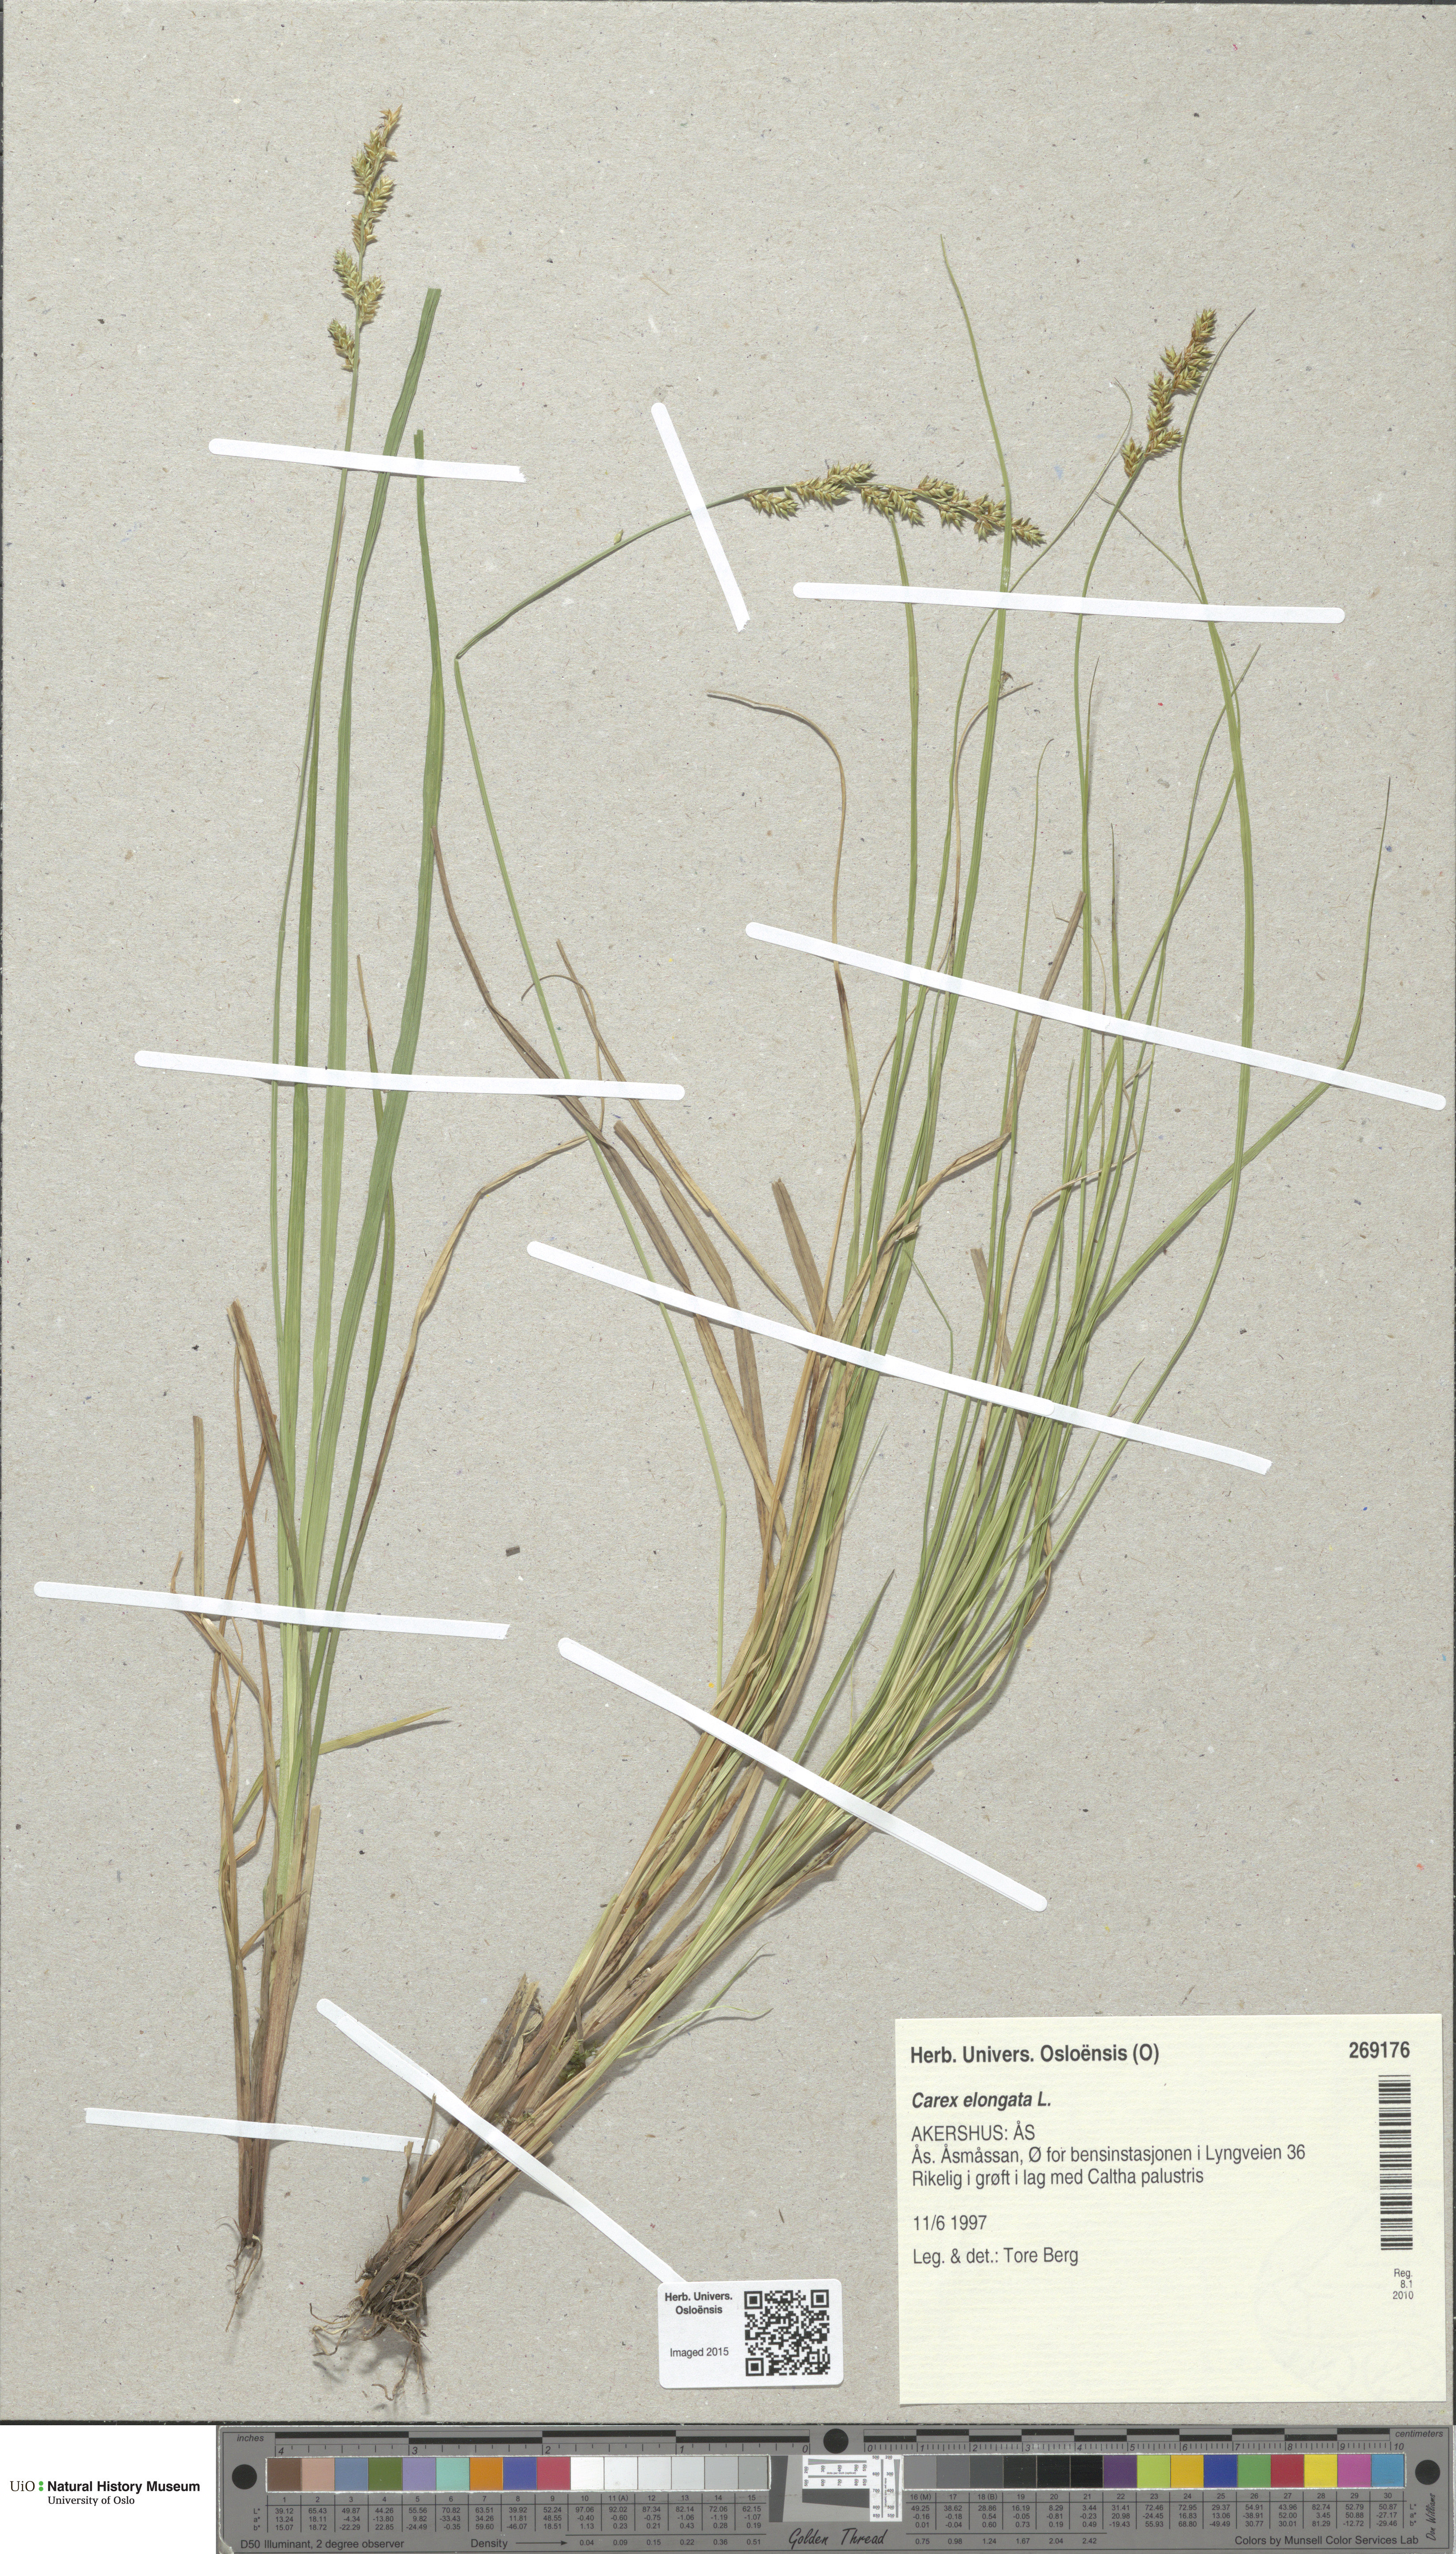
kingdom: Plantae
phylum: Tracheophyta
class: Liliopsida
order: Poales
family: Cyperaceae
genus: Carex
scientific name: Carex elongata
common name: Elongated sedge
